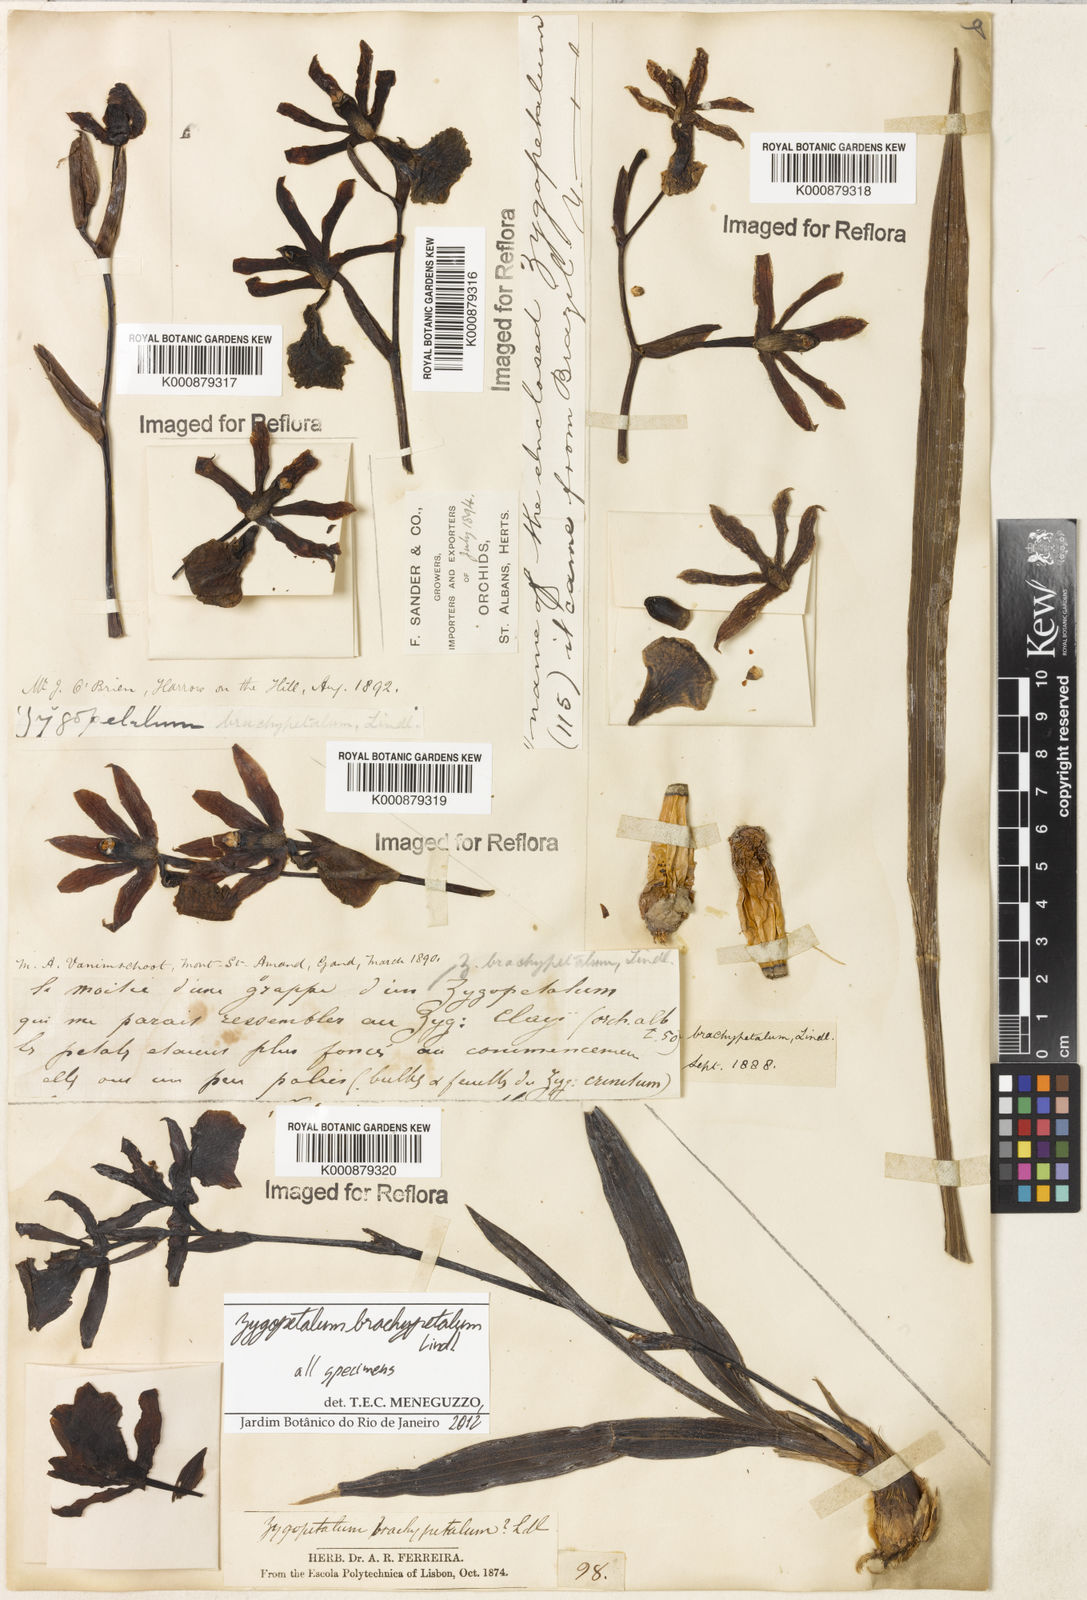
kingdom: Plantae
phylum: Tracheophyta
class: Liliopsida
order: Asparagales
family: Orchidaceae
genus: Zygopetalum
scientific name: Zygopetalum brachypetalum
